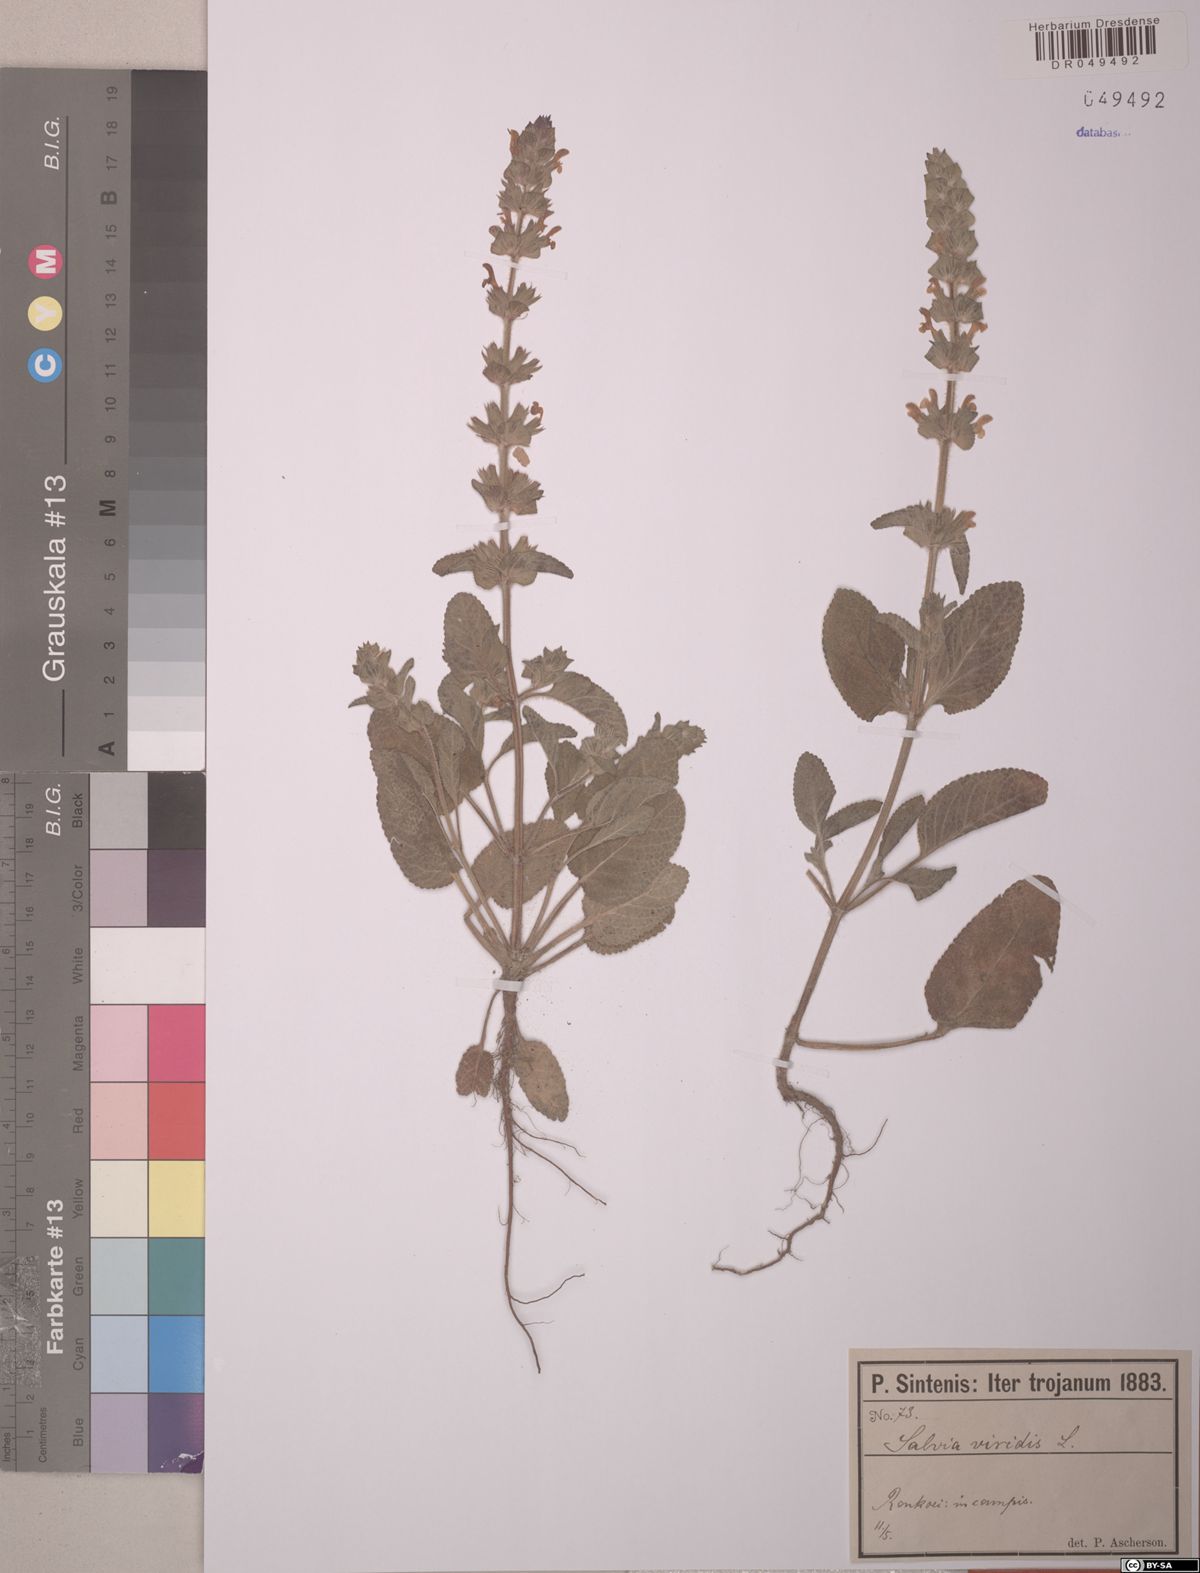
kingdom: Plantae
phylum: Tracheophyta
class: Magnoliopsida
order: Lamiales
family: Lamiaceae
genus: Salvia
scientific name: Salvia viridis
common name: Annual clary
